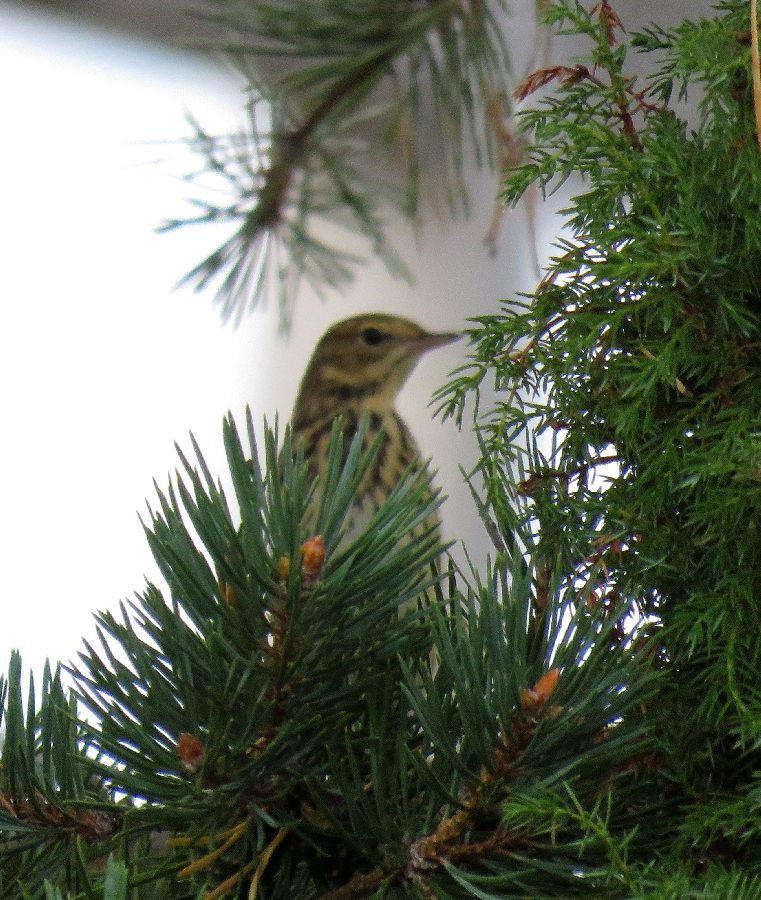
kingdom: Animalia
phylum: Chordata
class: Aves
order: Passeriformes
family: Motacillidae
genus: Anthus
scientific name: Anthus trivialis
